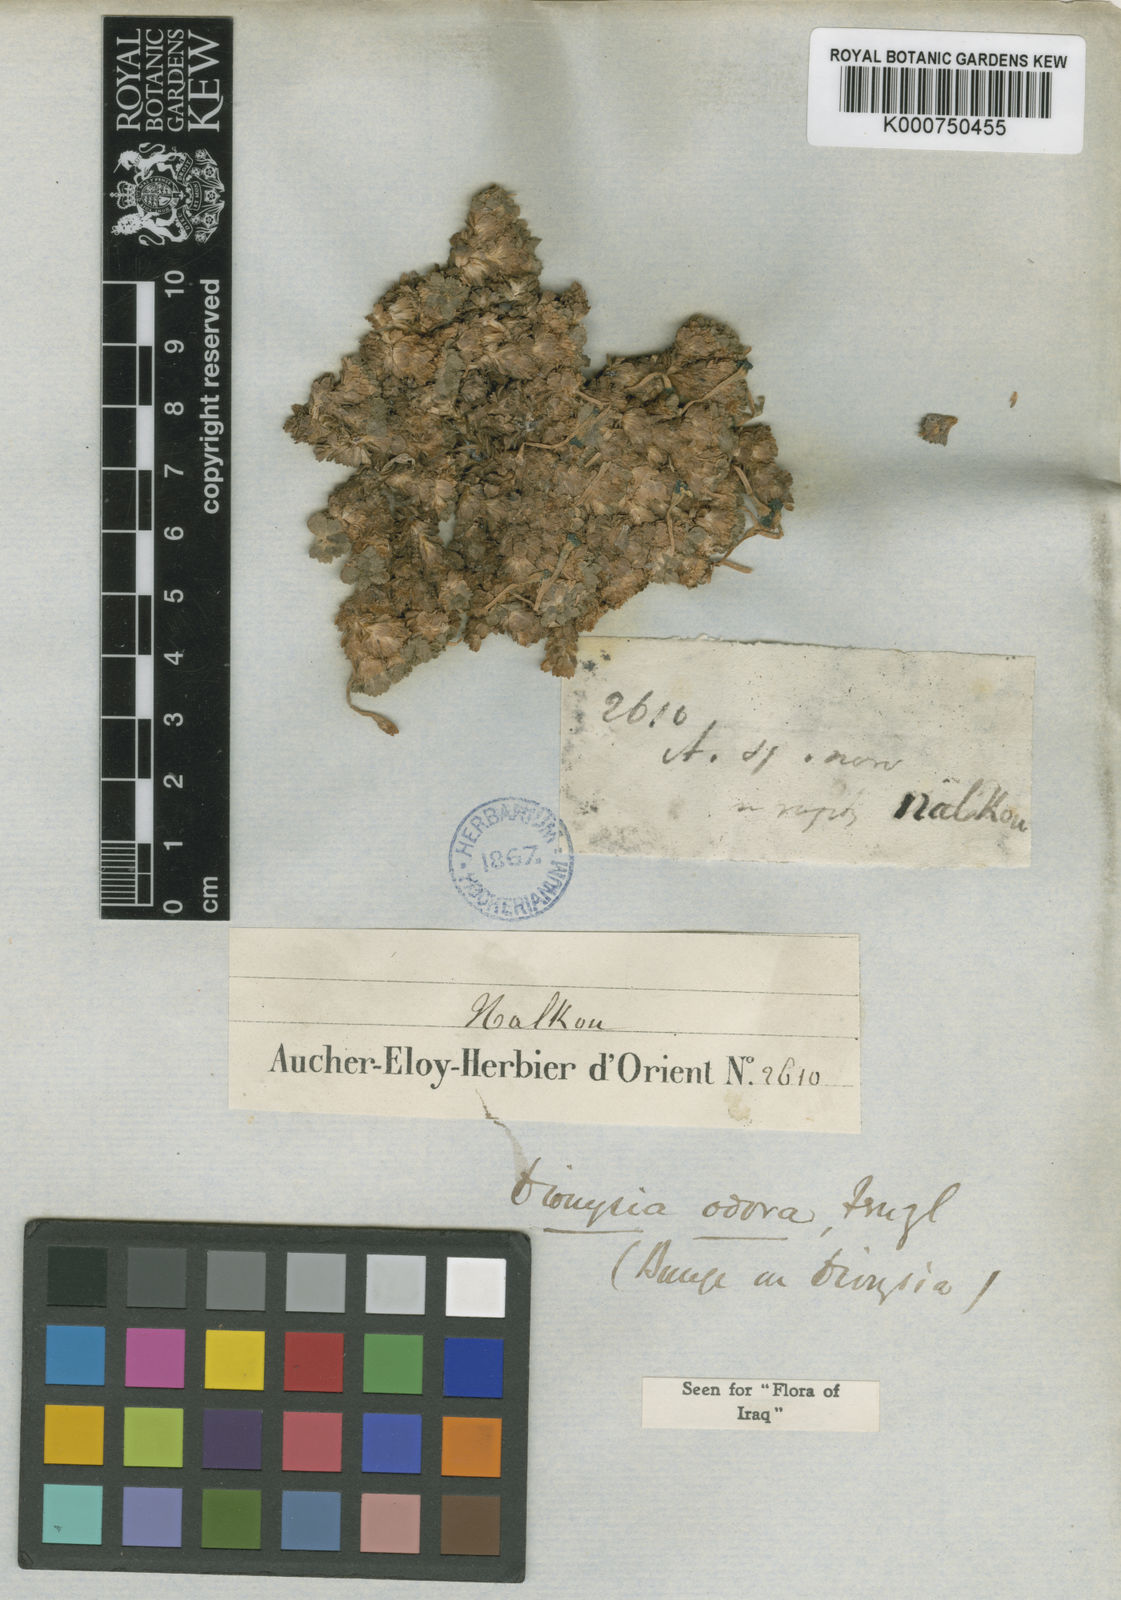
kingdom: Plantae
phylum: Tracheophyta
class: Magnoliopsida
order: Ericales
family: Primulaceae
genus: Dionysia
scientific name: Dionysia odora
